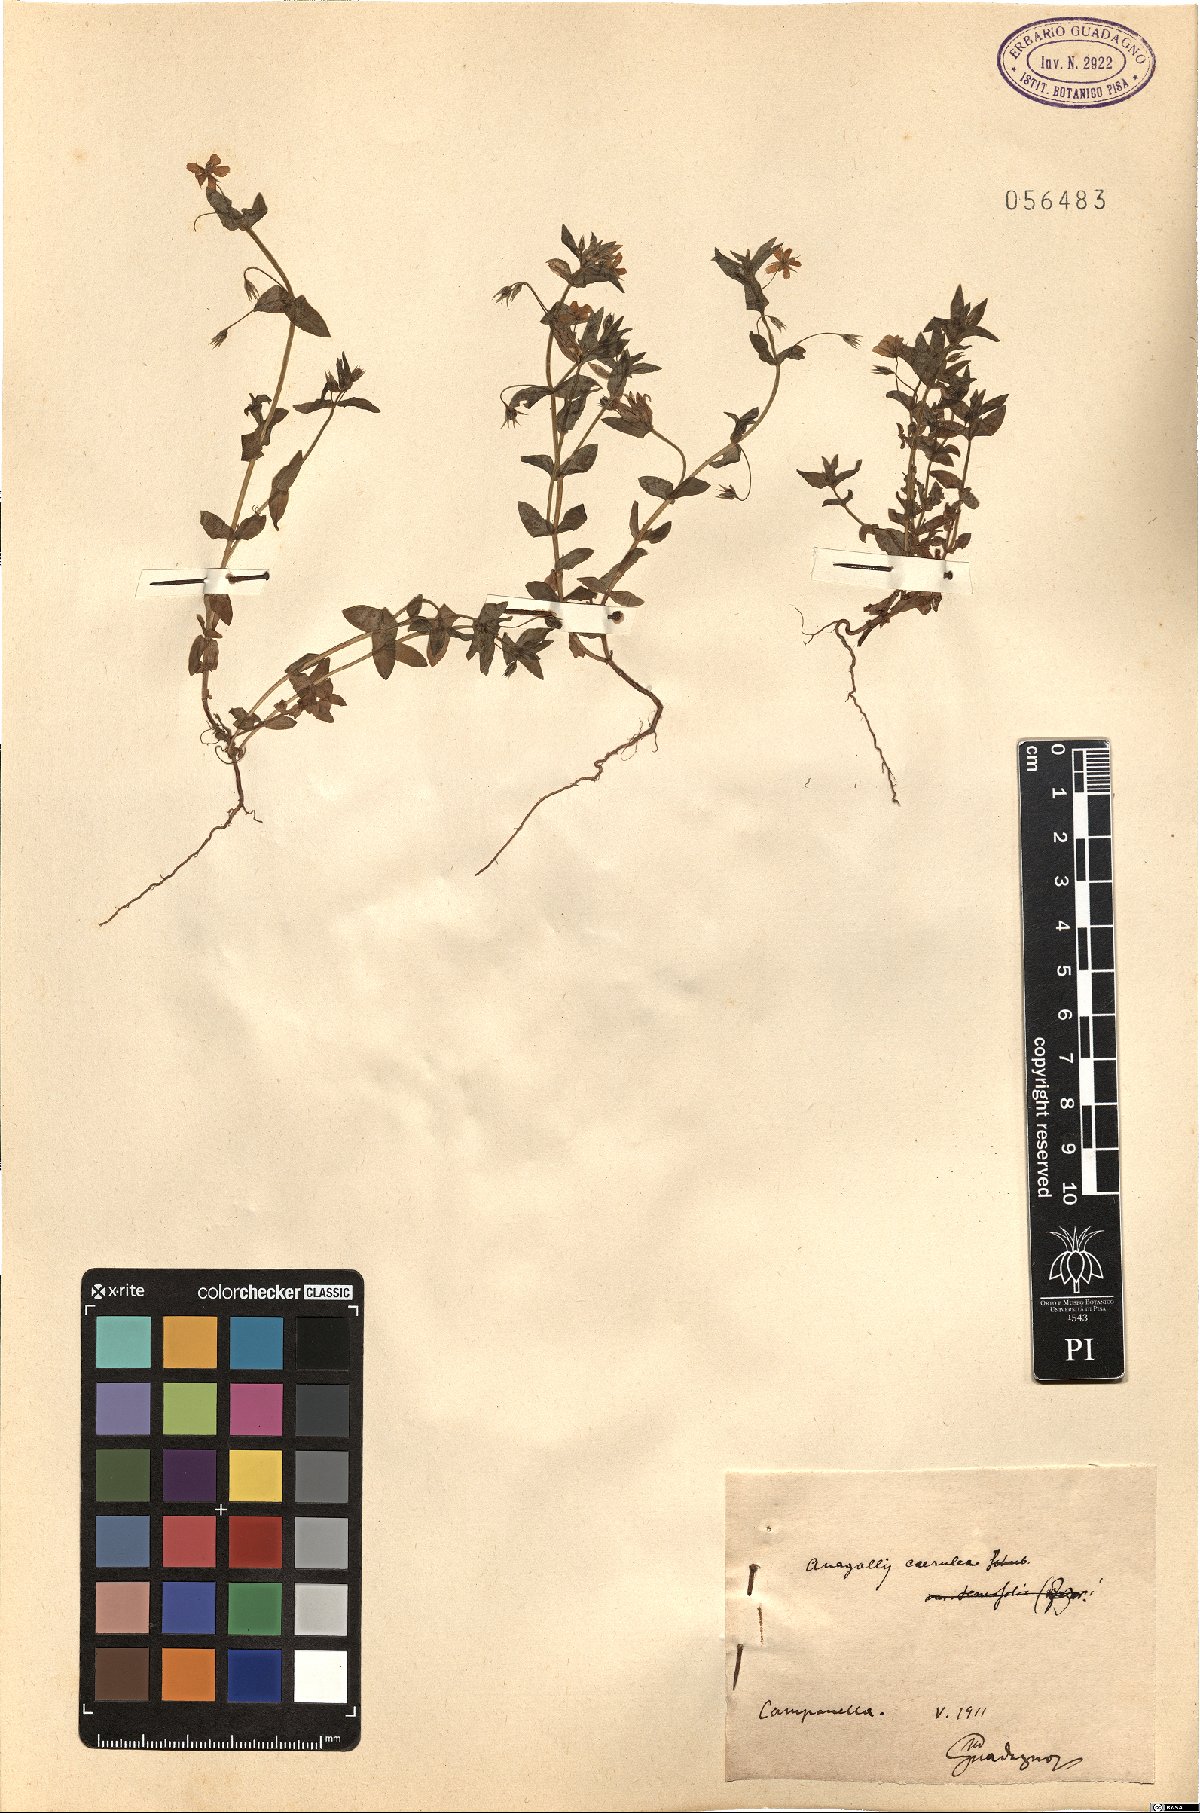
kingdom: Plantae
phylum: Tracheophyta
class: Magnoliopsida
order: Ericales
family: Primulaceae
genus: Lysimachia
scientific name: Lysimachia loeflingii
